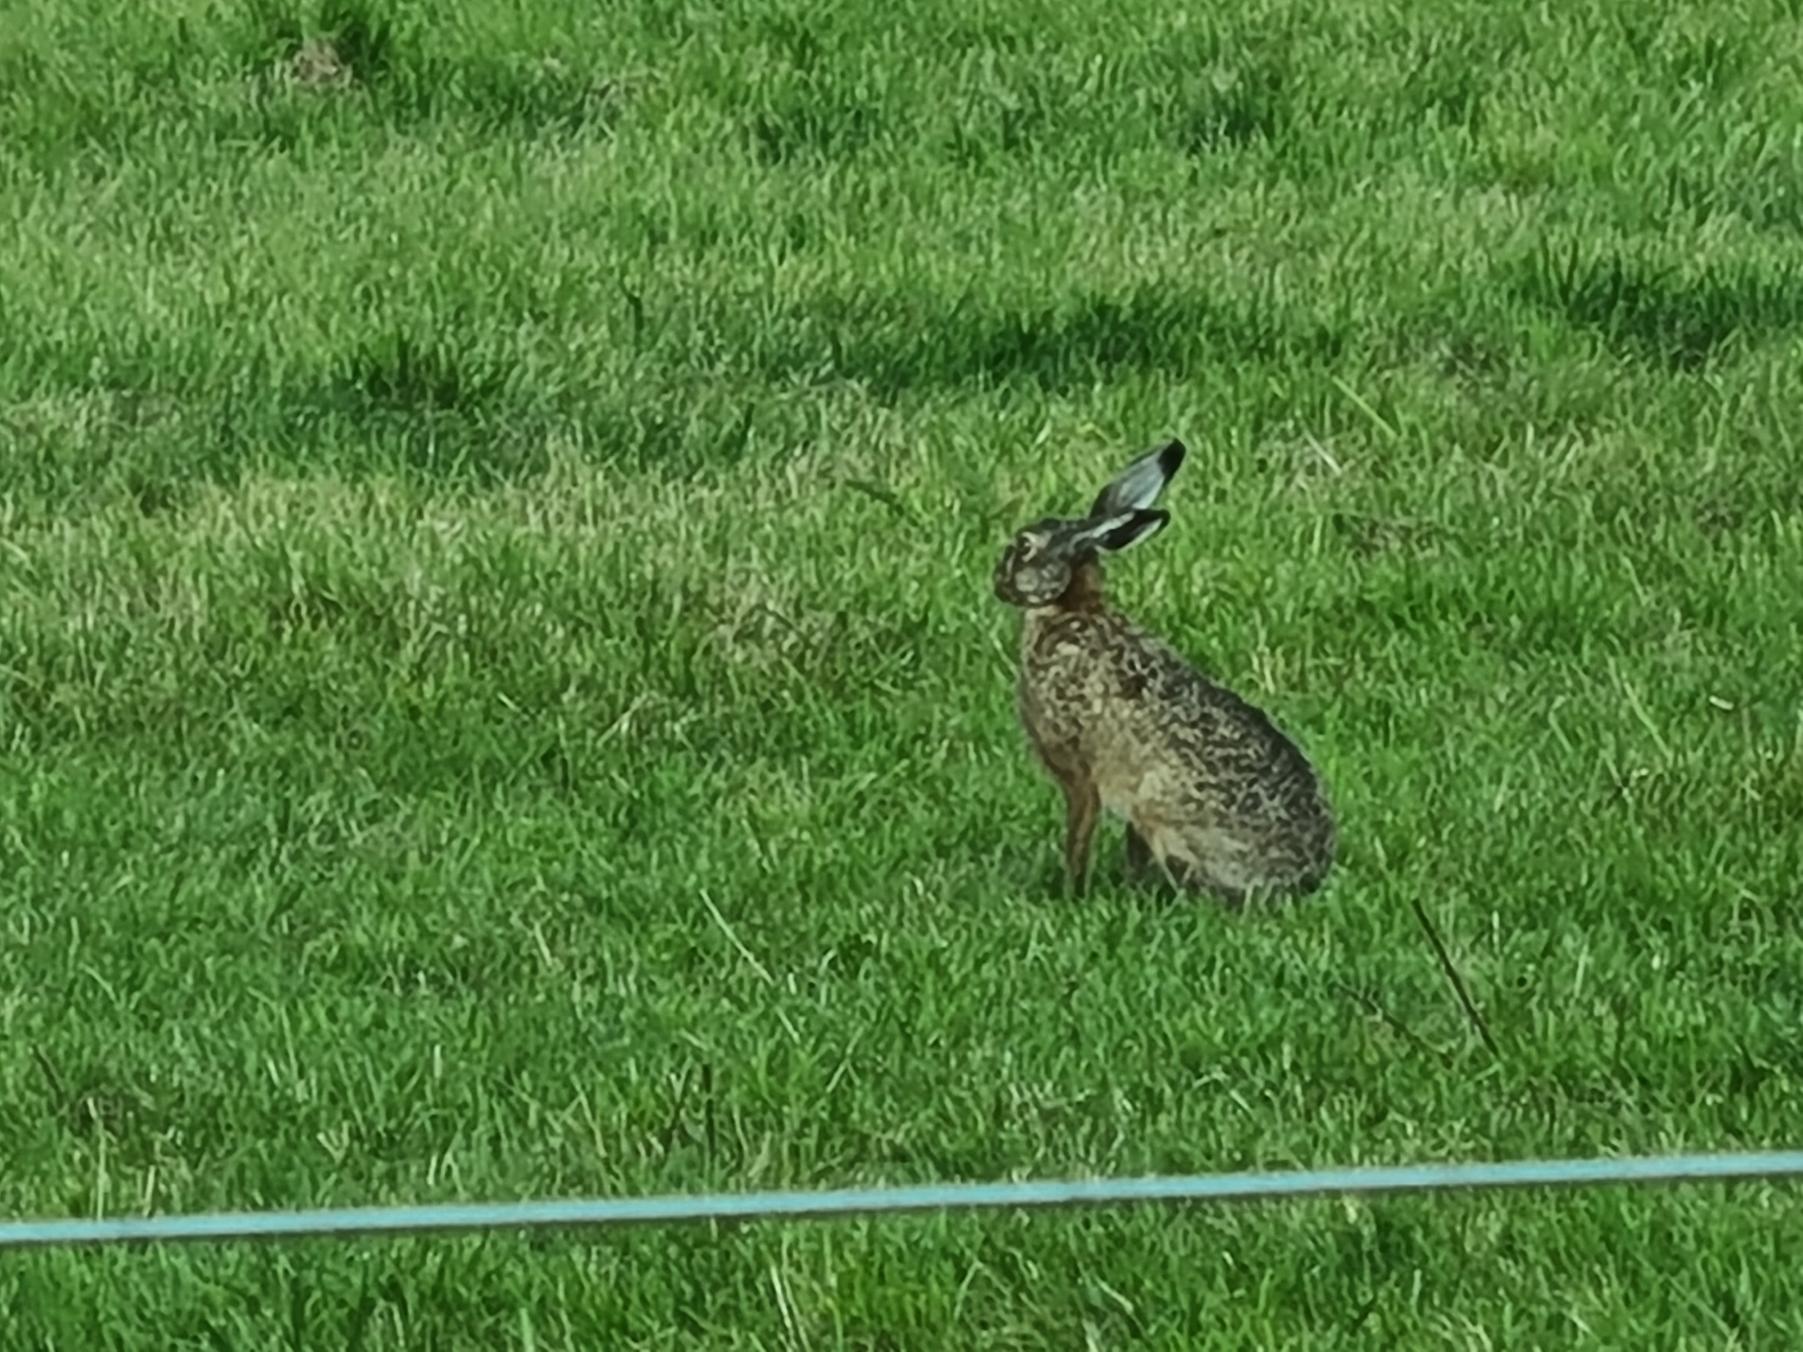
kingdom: Animalia
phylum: Chordata
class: Mammalia
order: Lagomorpha
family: Leporidae
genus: Lepus
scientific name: Lepus europaeus
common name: Hare
